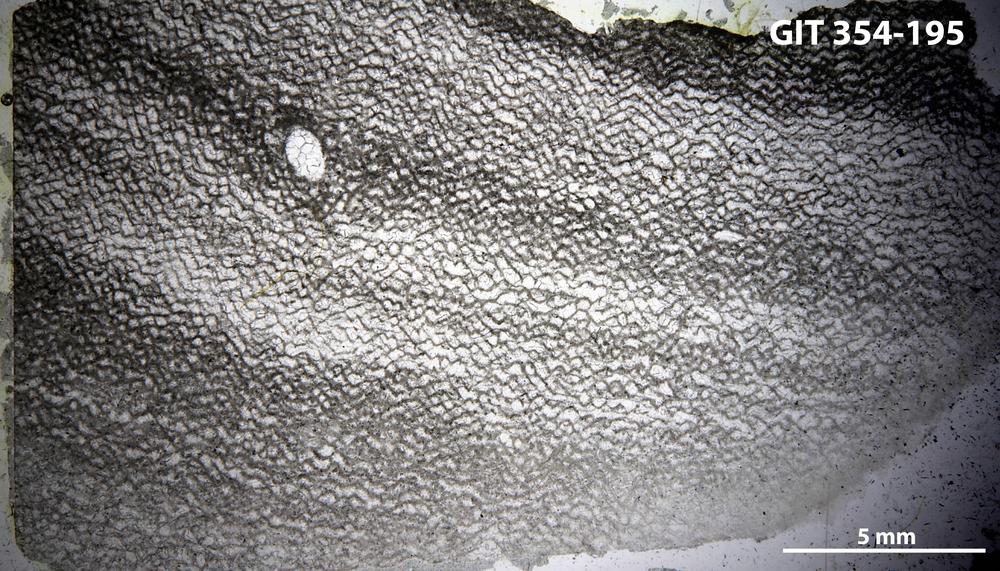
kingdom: Animalia
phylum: Porifera
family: Ecclimadictyidae
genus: Ecclimadictyon
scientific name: Ecclimadictyon laminaeungulatum
